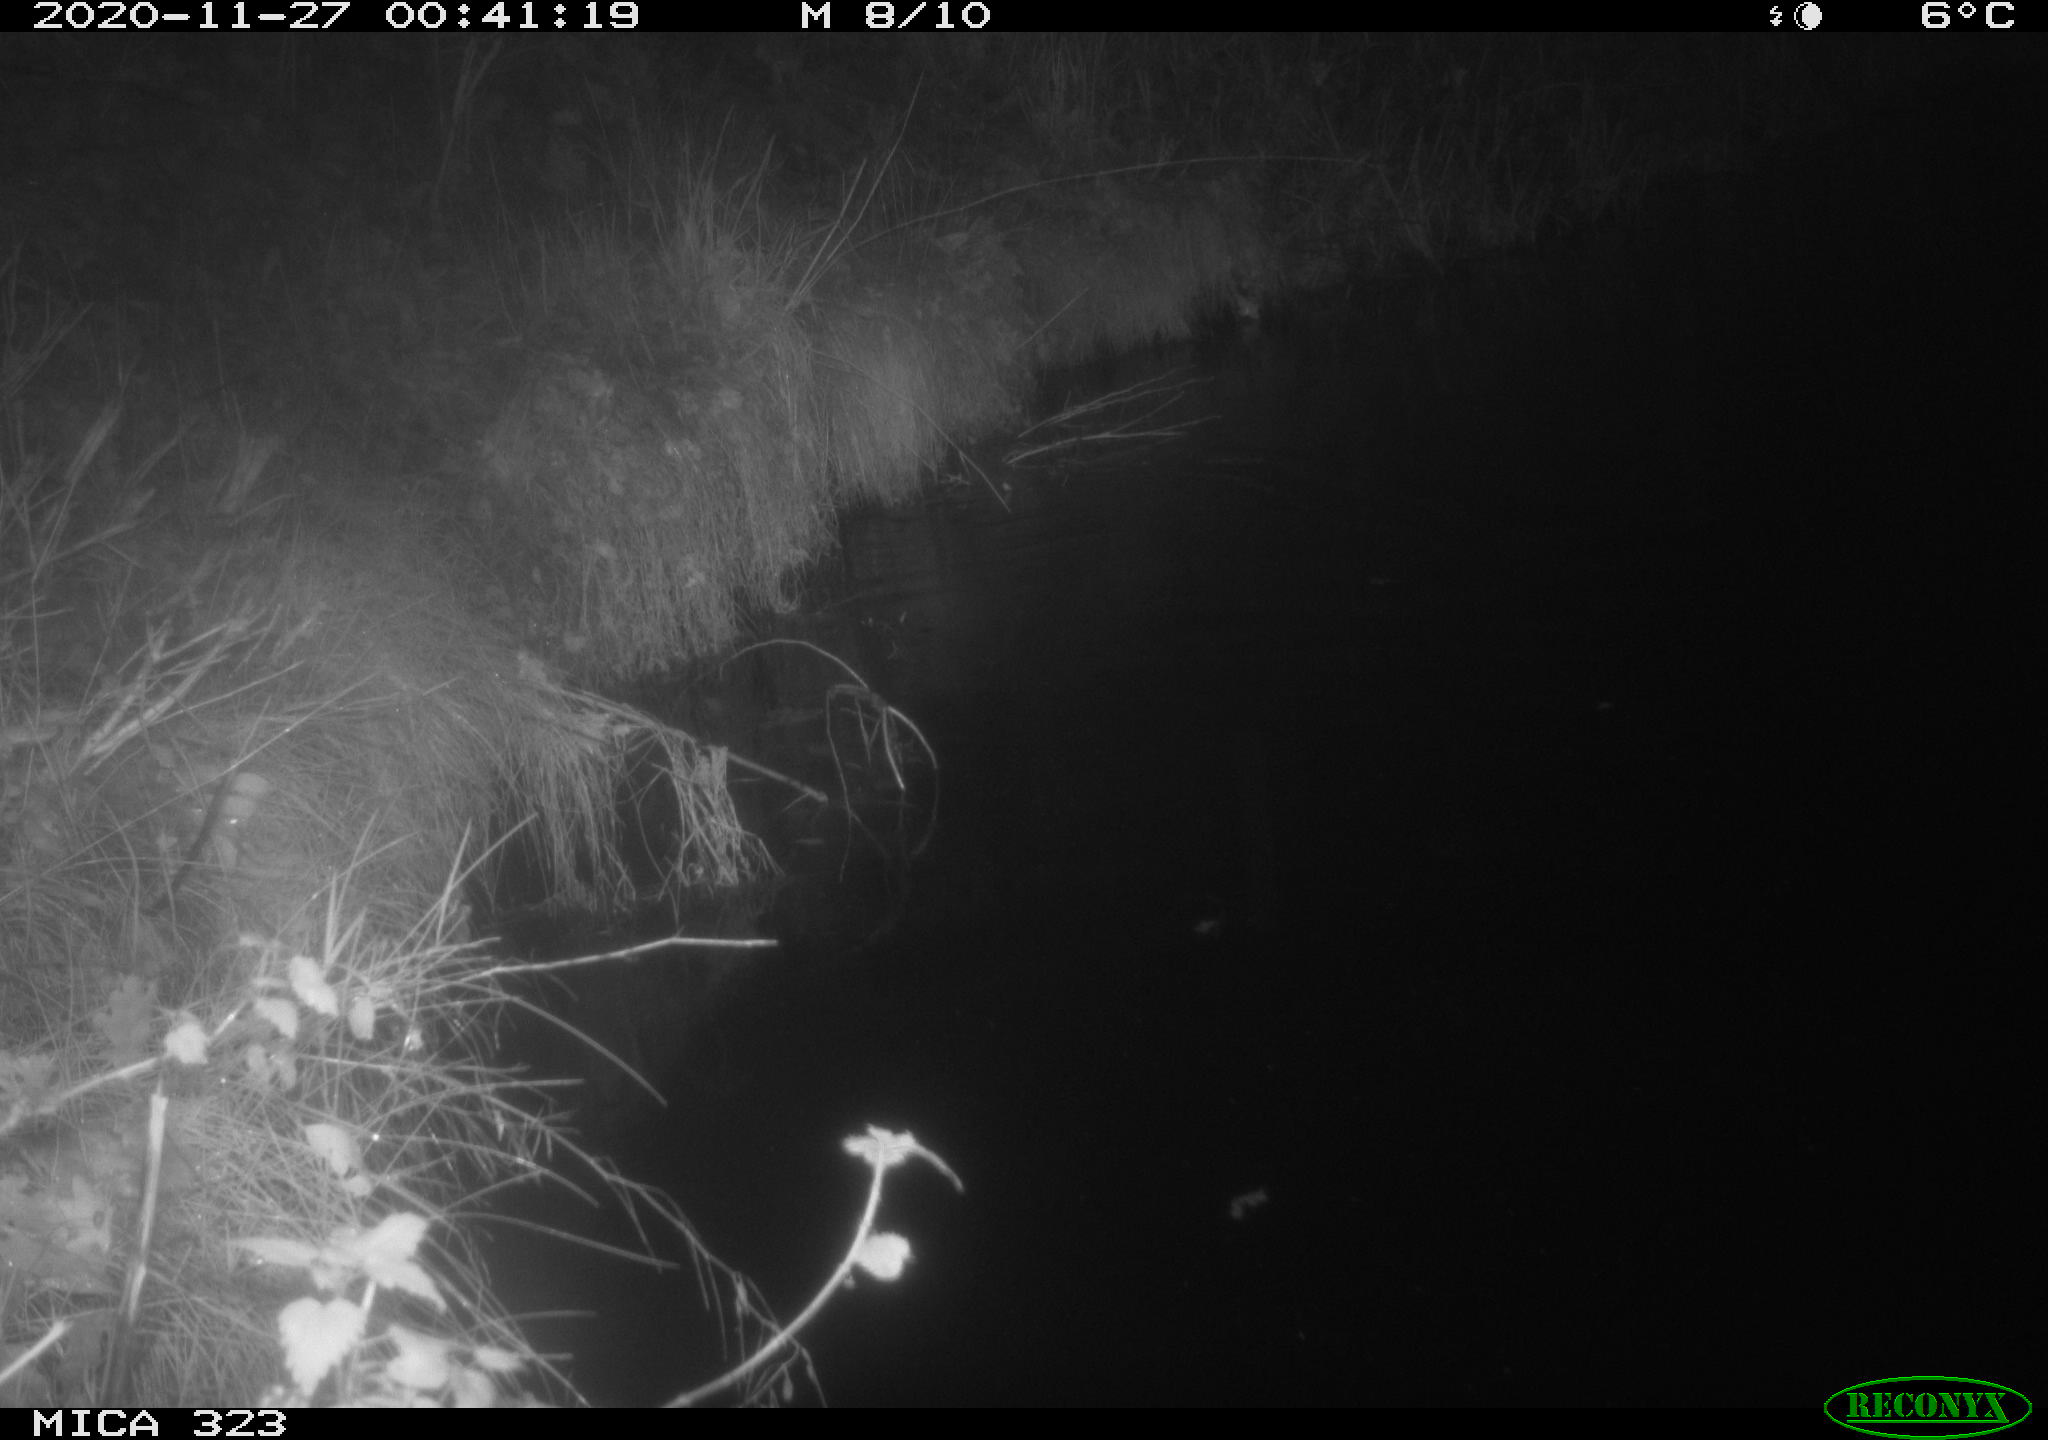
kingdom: Animalia
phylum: Chordata
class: Mammalia
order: Rodentia
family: Myocastoridae
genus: Myocastor
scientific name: Myocastor coypus
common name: Coypu
